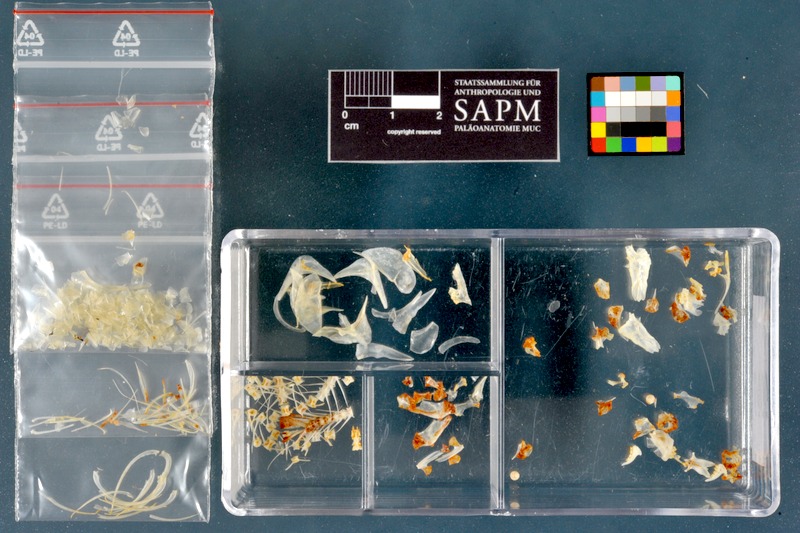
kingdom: Animalia
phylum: Chordata
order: Characiformes
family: Alestidae
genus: Brycinus
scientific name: Brycinus nurse
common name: Nurse tetra
